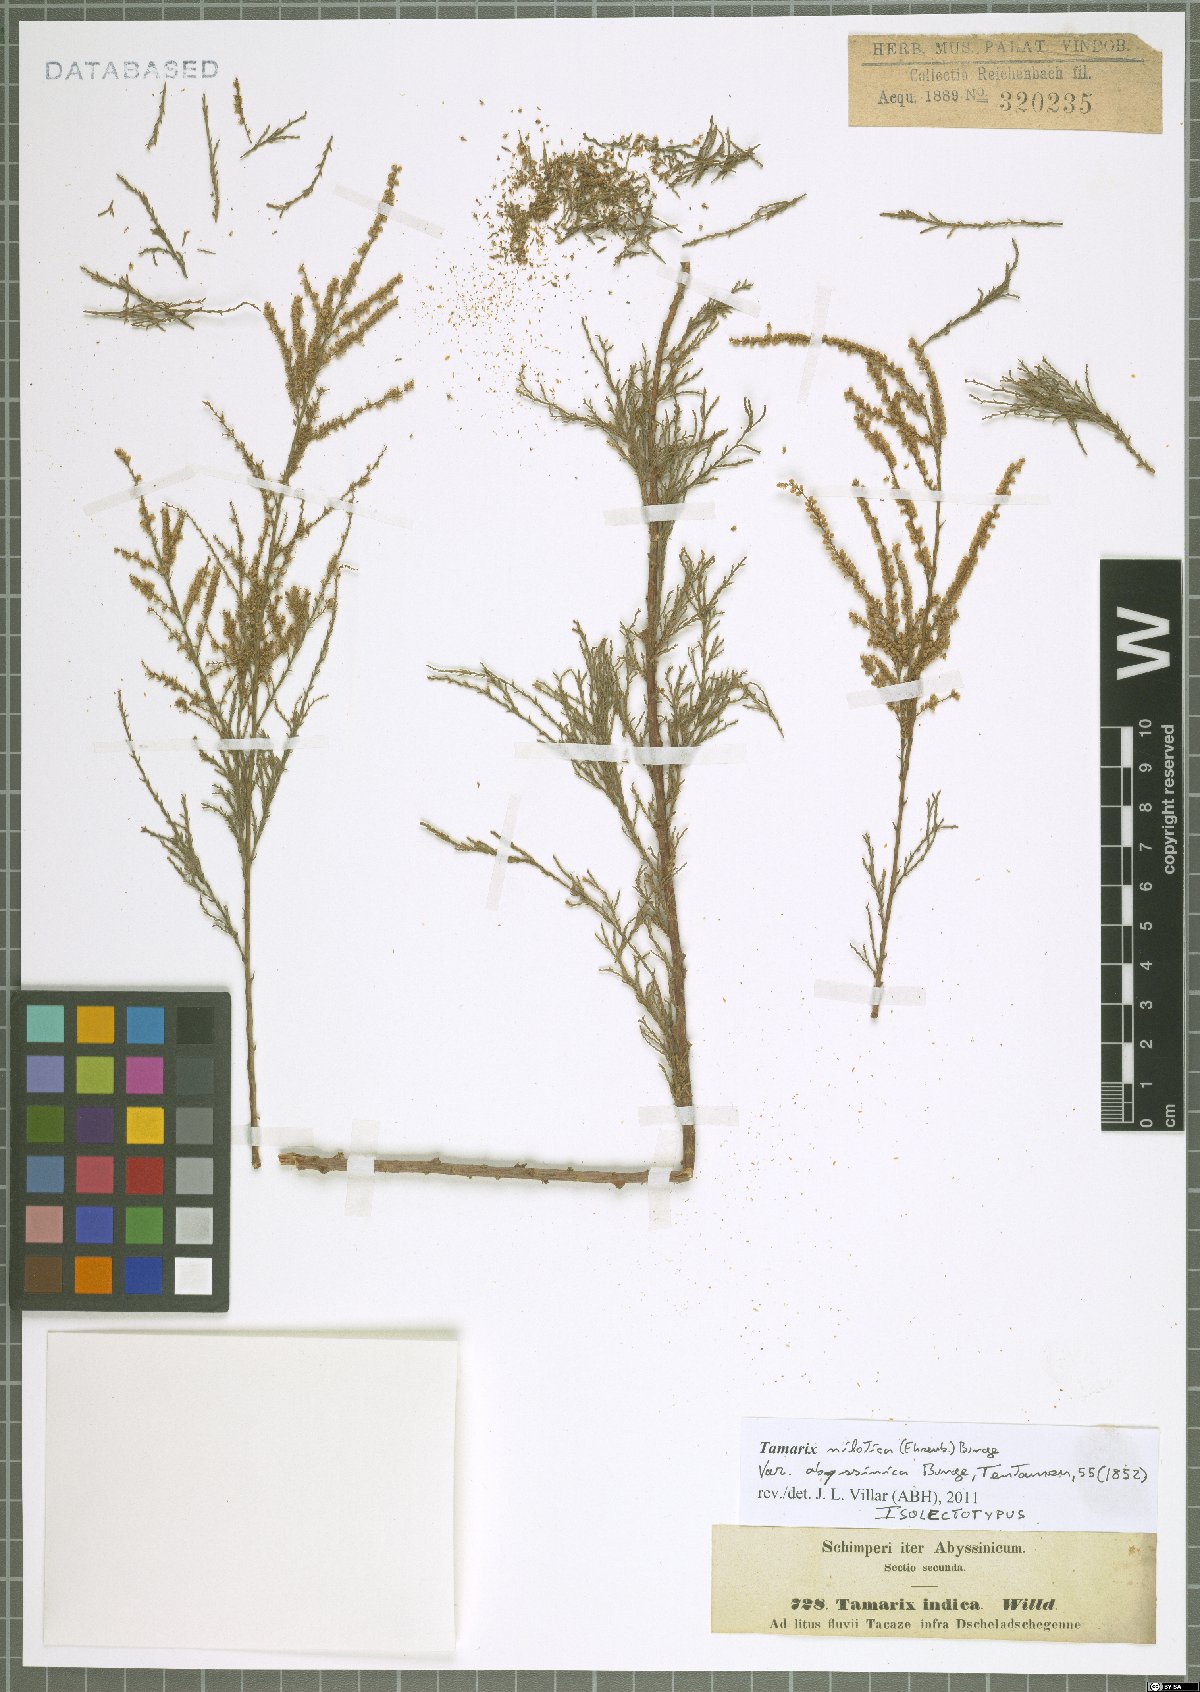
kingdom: Plantae
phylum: Tracheophyta
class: Magnoliopsida
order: Caryophyllales
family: Tamaricaceae
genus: Tamarix
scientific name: Tamarix nilotica
